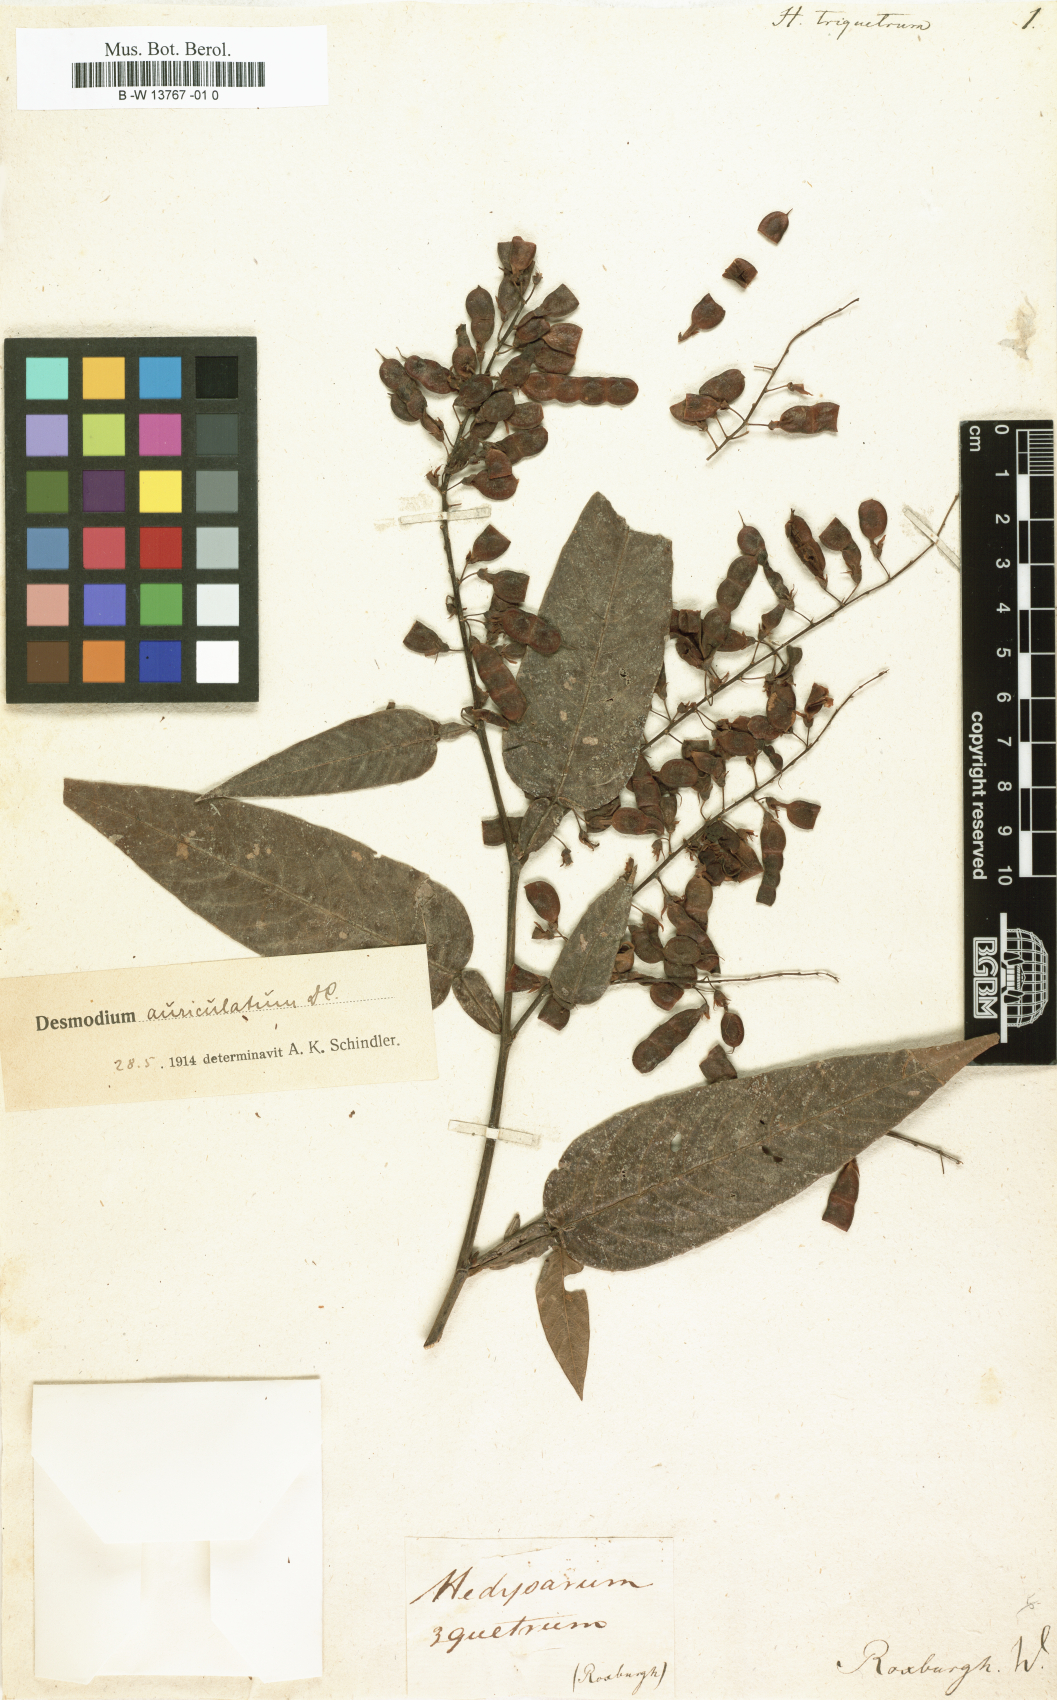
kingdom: Plantae
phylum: Tracheophyta
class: Magnoliopsida
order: Fabales
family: Fabaceae
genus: Tadehagi
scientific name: Tadehagi triquetrum
